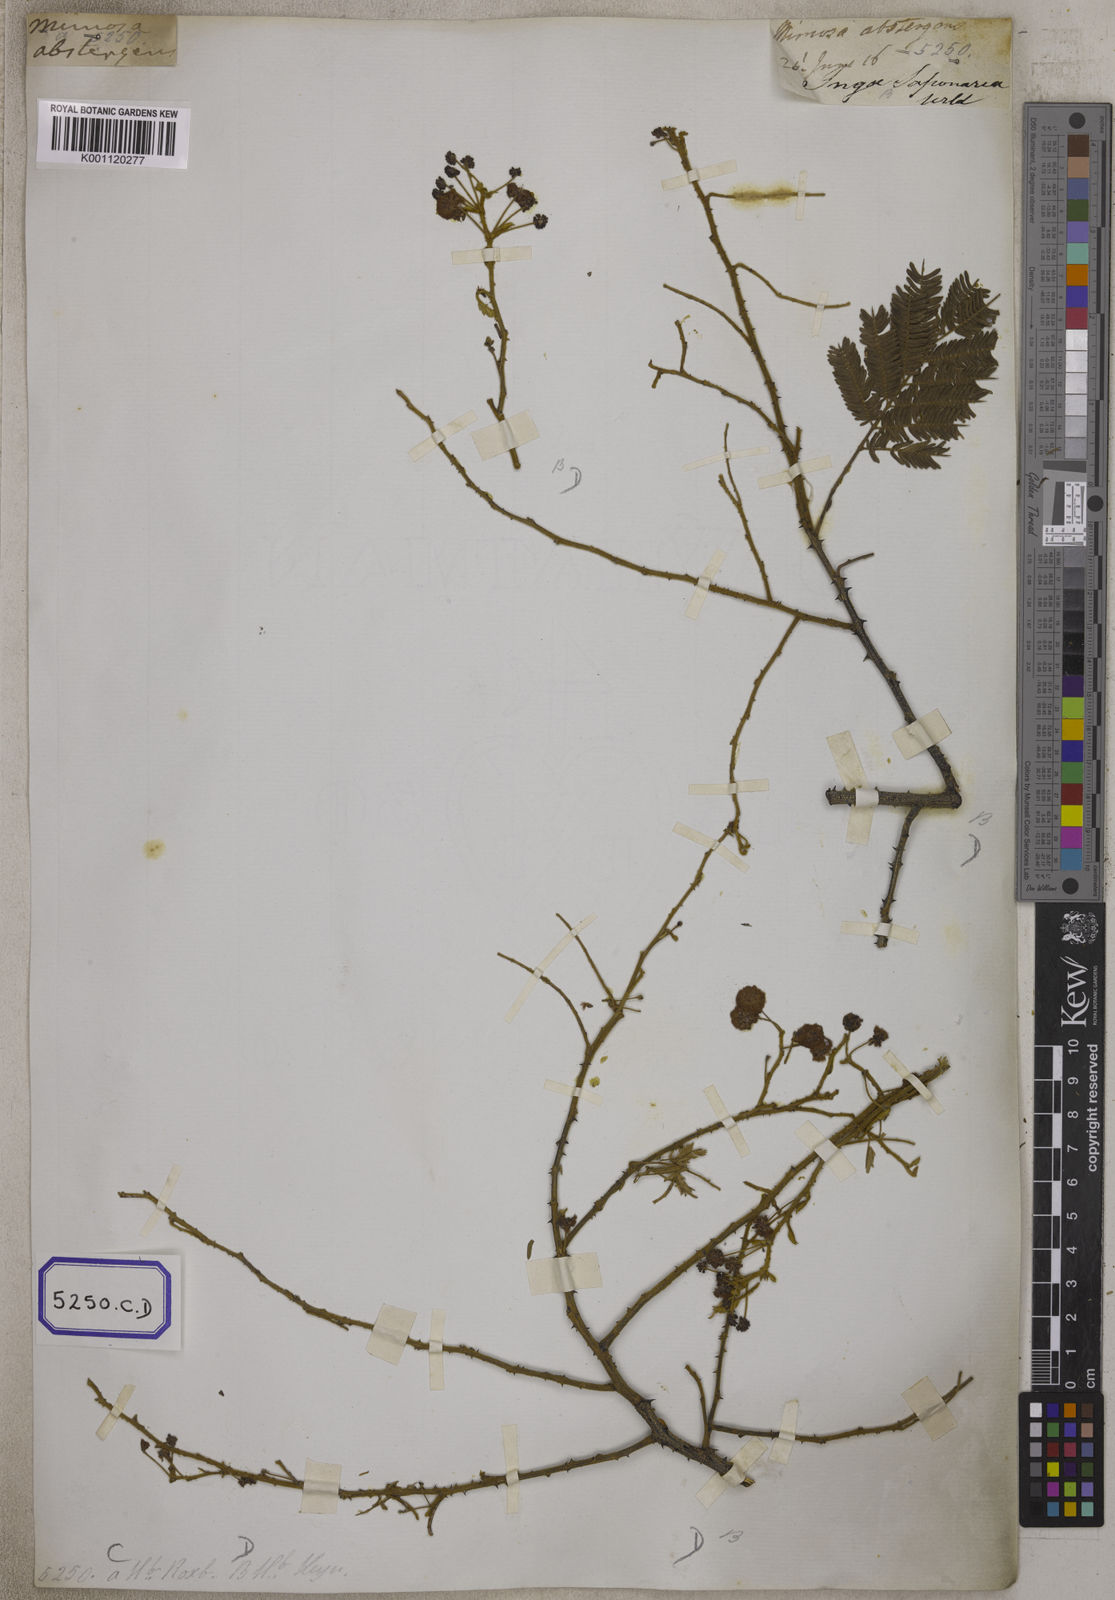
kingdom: Plantae
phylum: Tracheophyta
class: Magnoliopsida
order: Fabales
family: Fabaceae
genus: Senegalia
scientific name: Senegalia rugata
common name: Soap-pod
